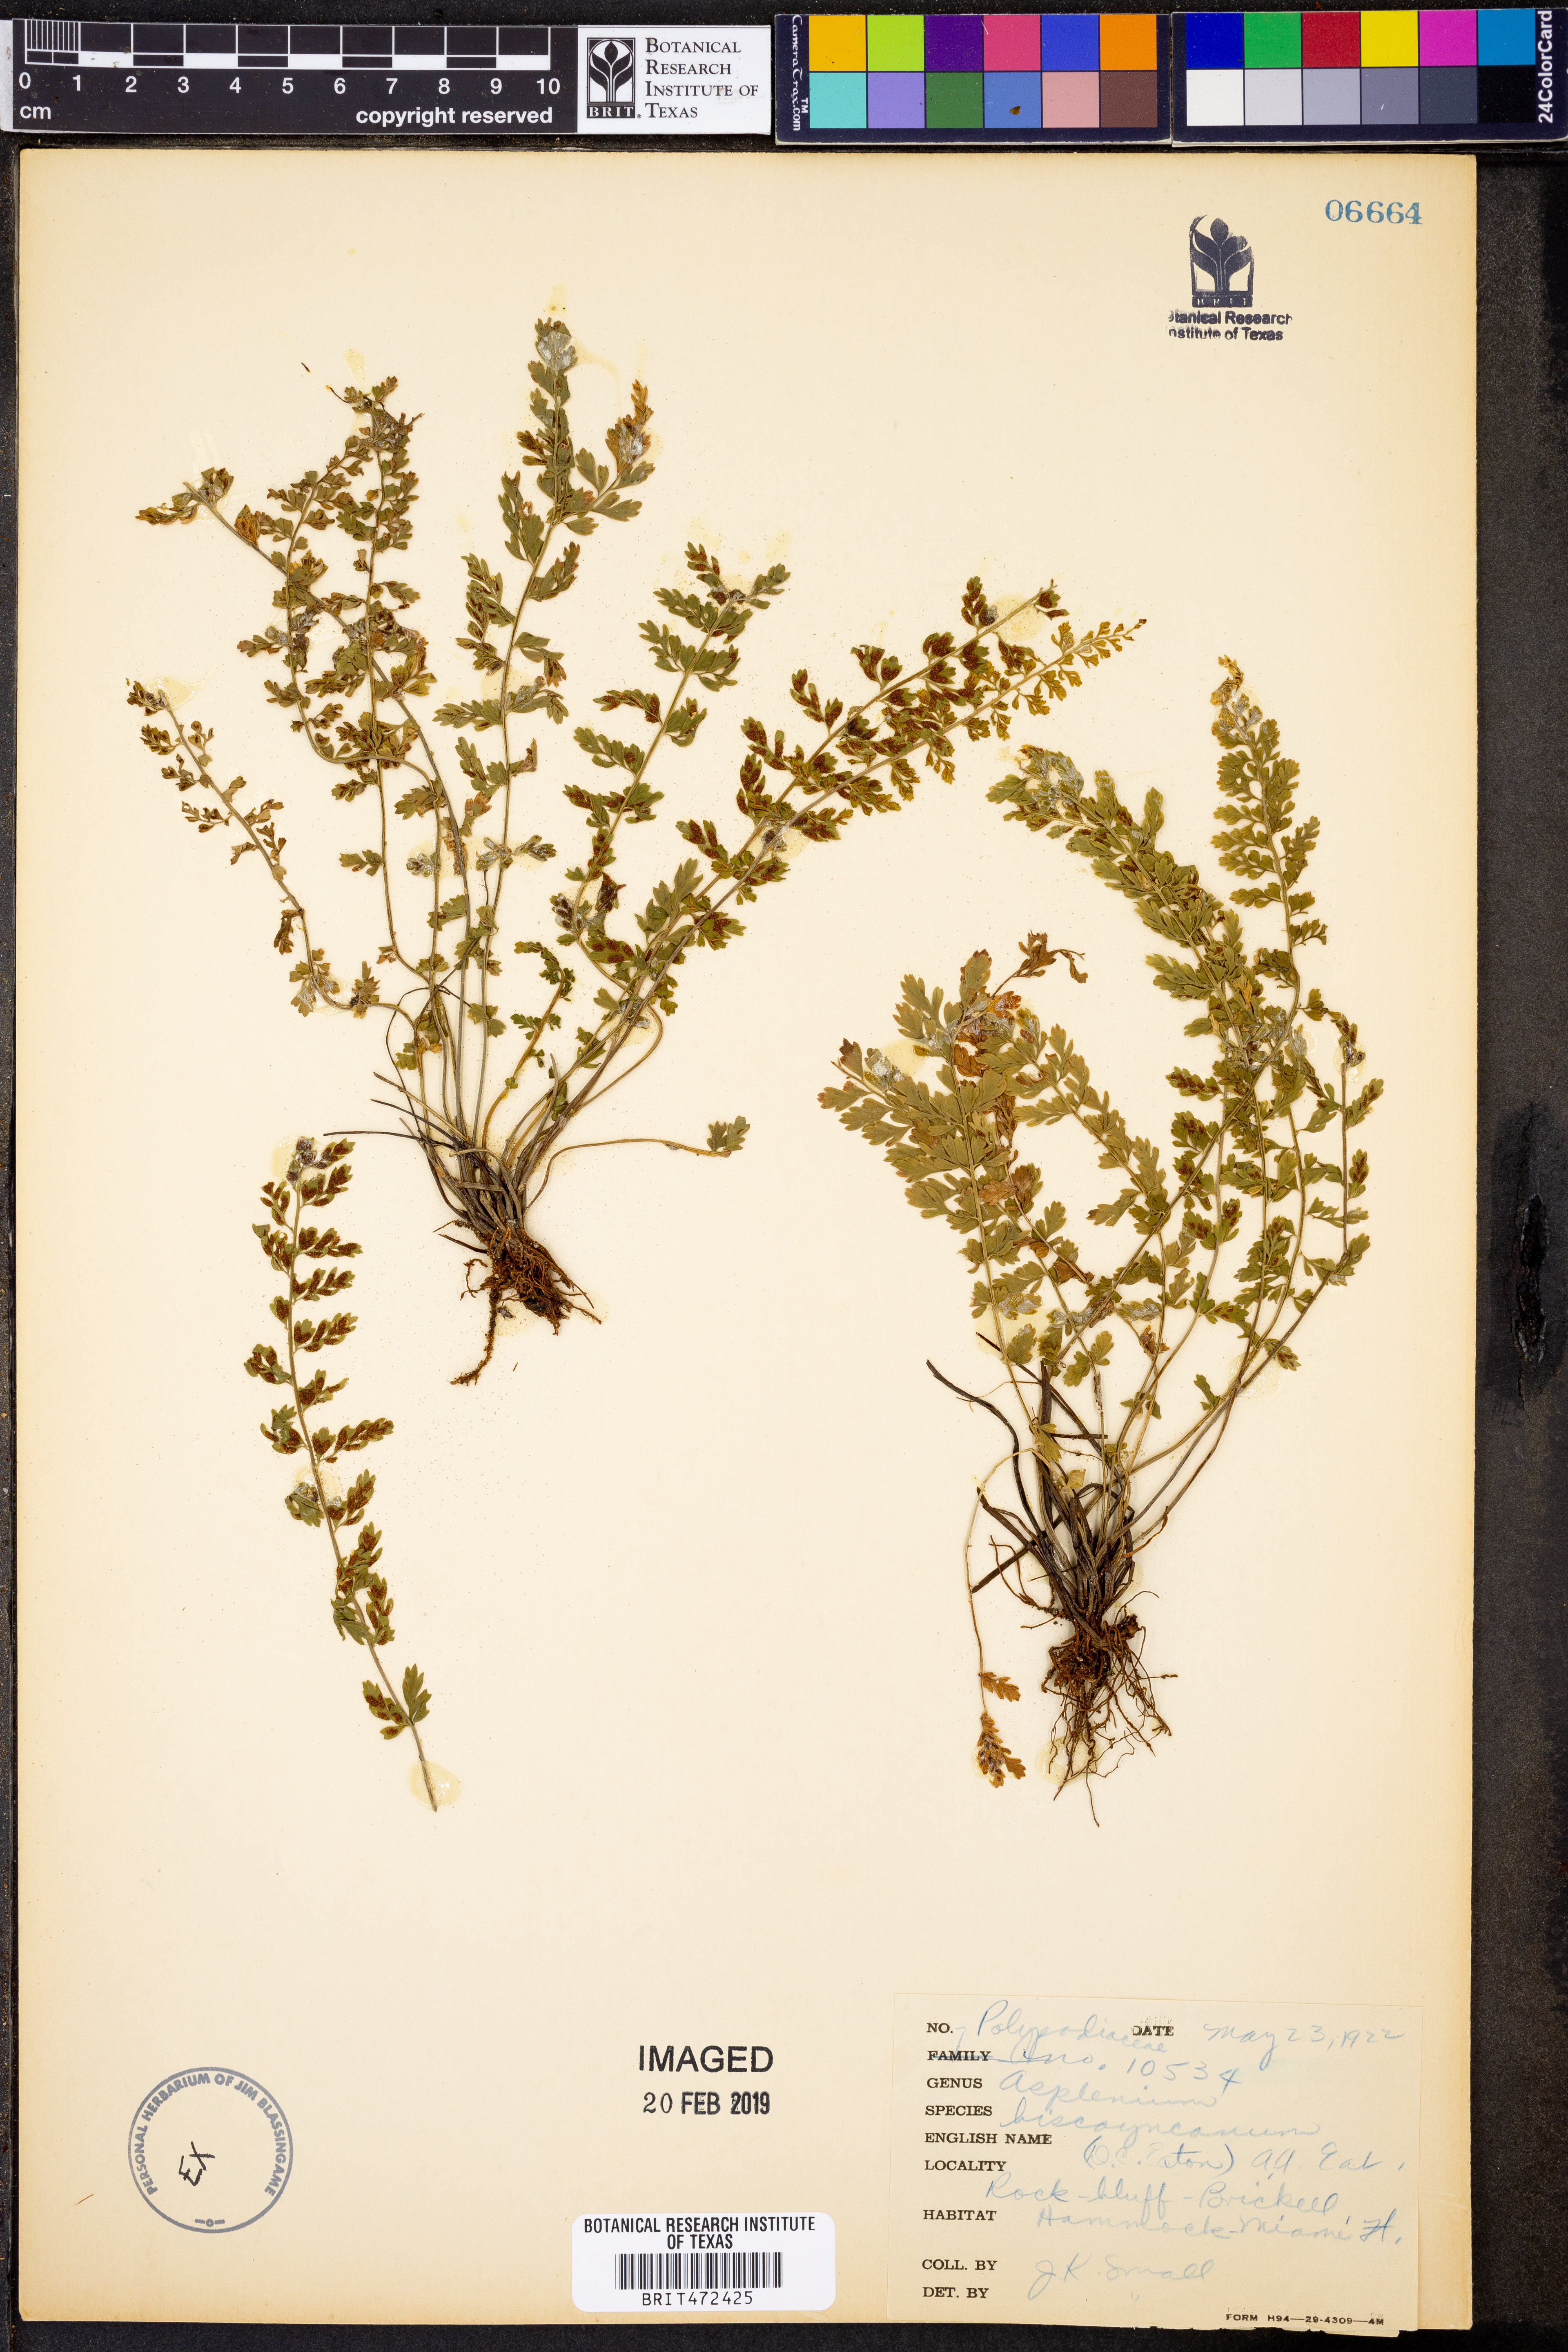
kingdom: Plantae
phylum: Tracheophyta
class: Polypodiopsida
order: Polypodiales
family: Aspleniaceae
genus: Asplenium
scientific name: Asplenium biscayneanum
